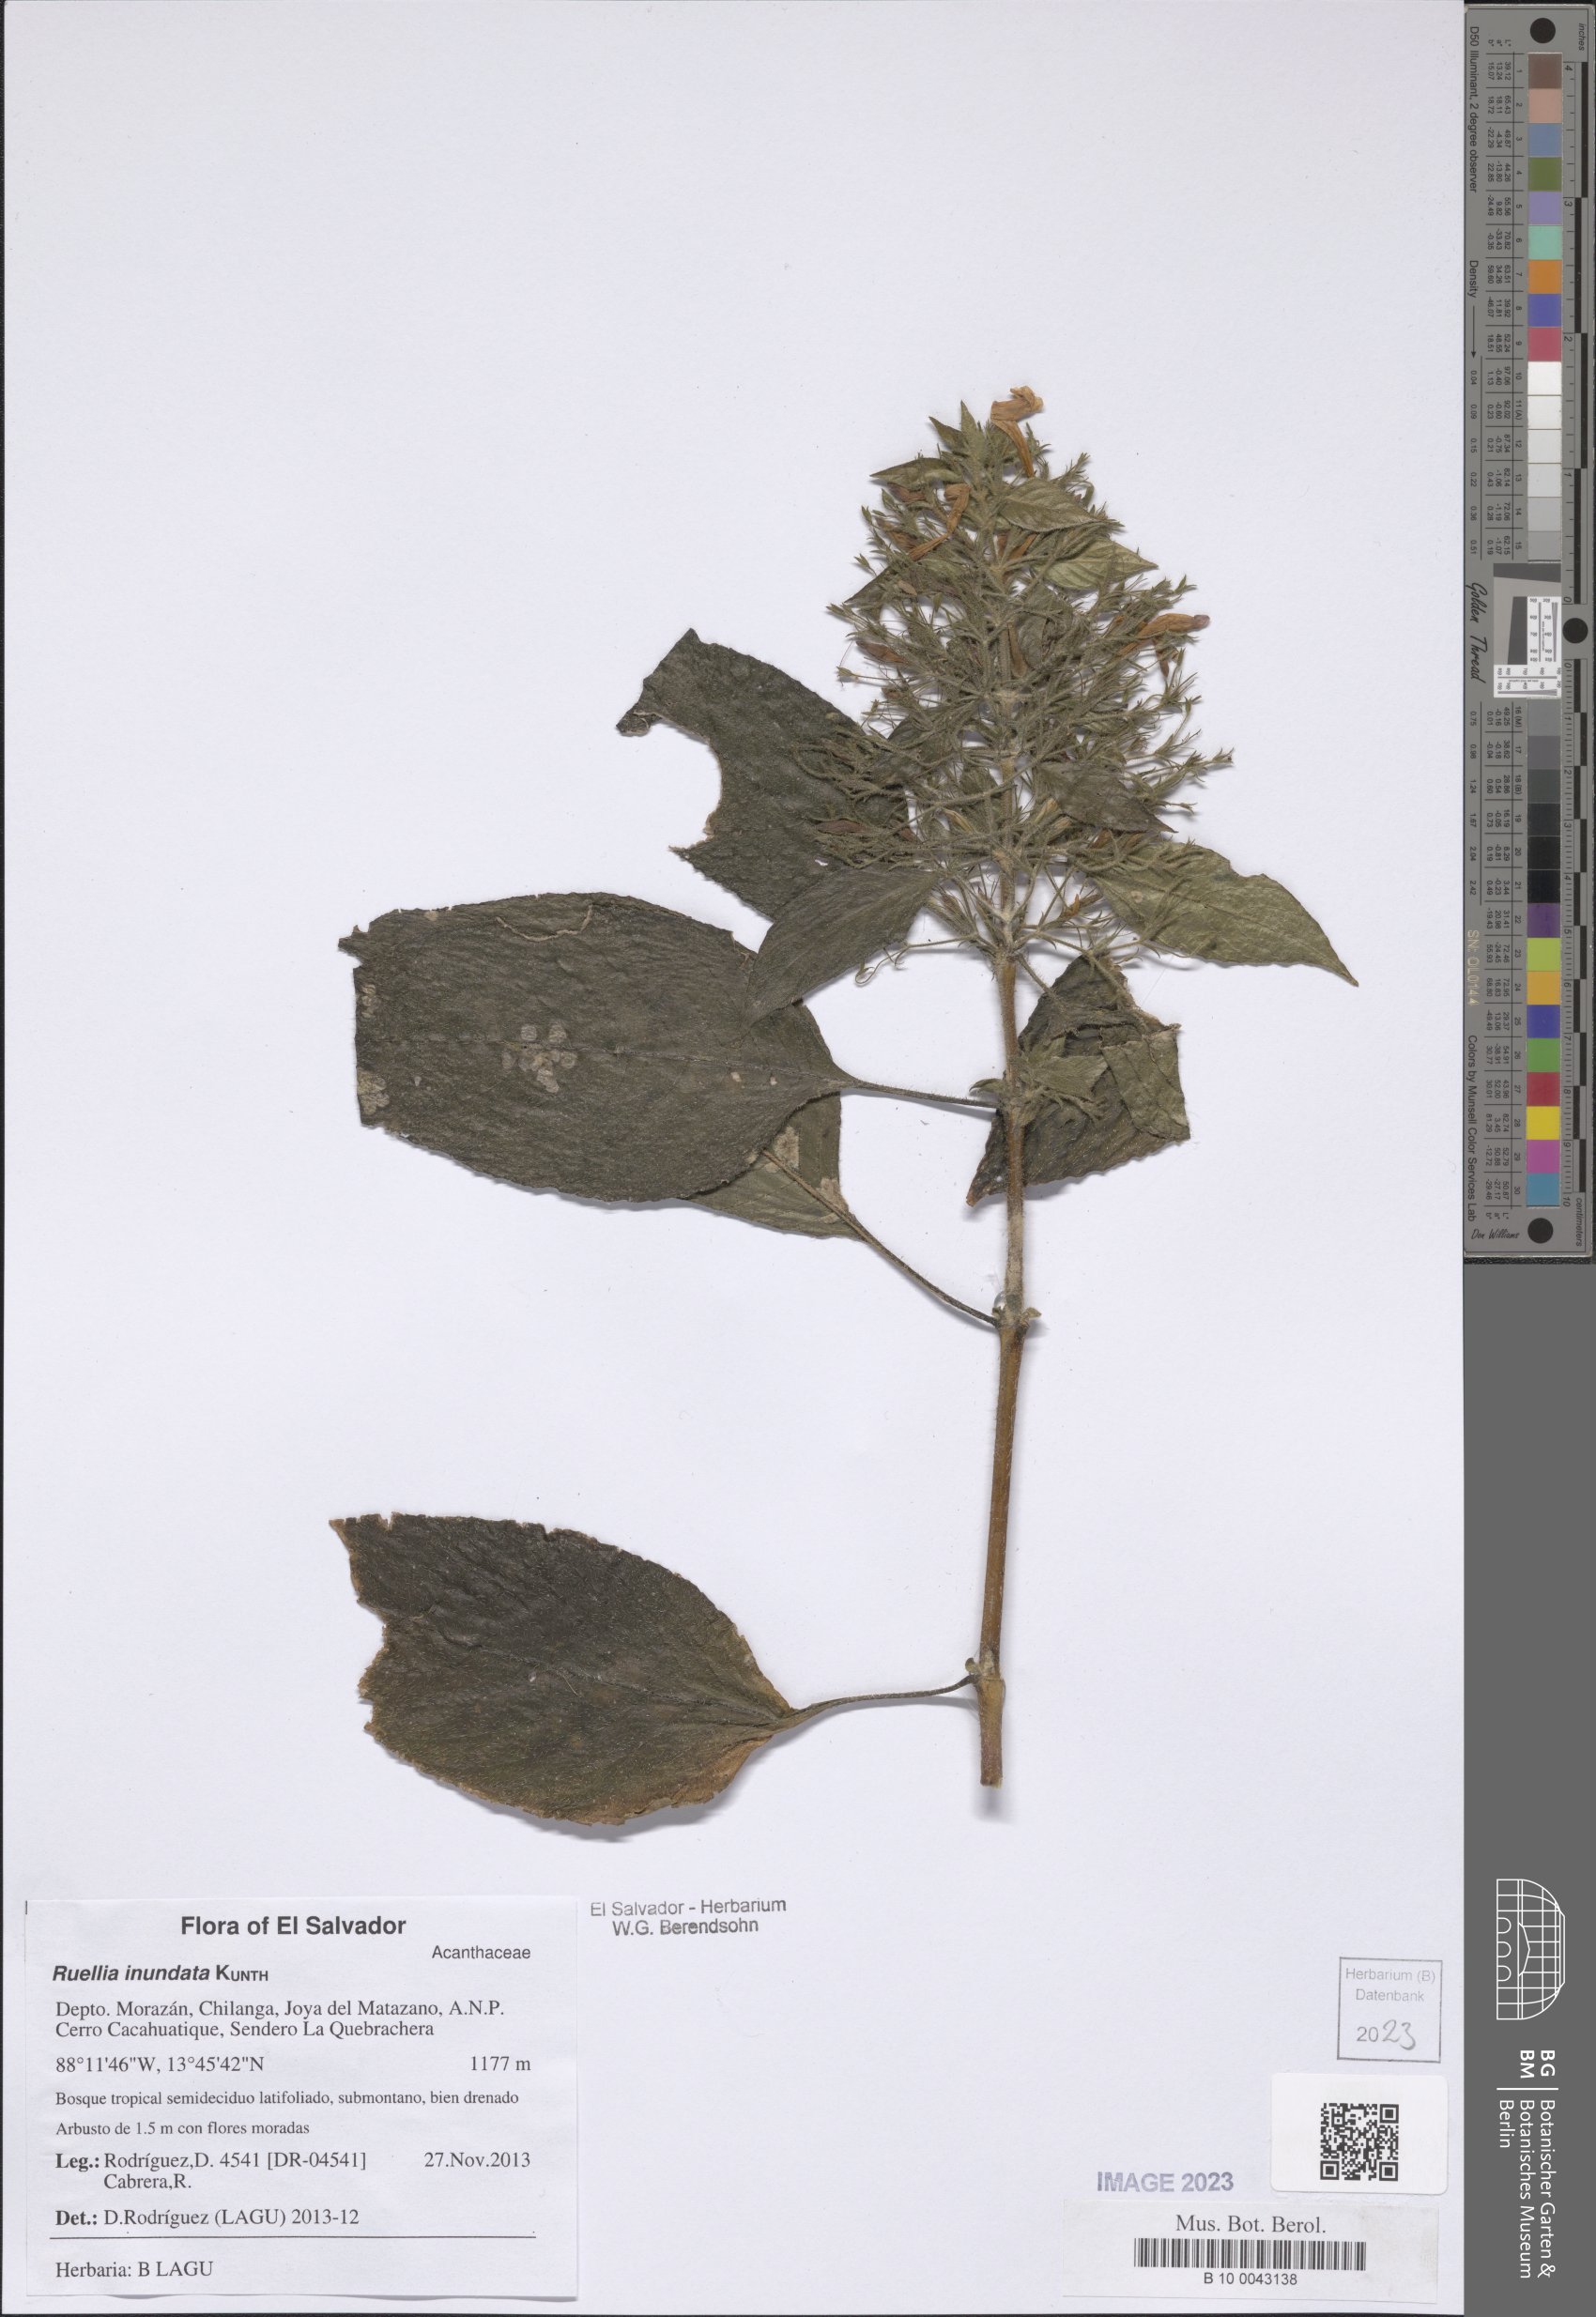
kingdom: Plantae
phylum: Tracheophyta
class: Magnoliopsida
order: Lamiales
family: Acanthaceae
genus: Ruellia
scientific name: Ruellia inundata
